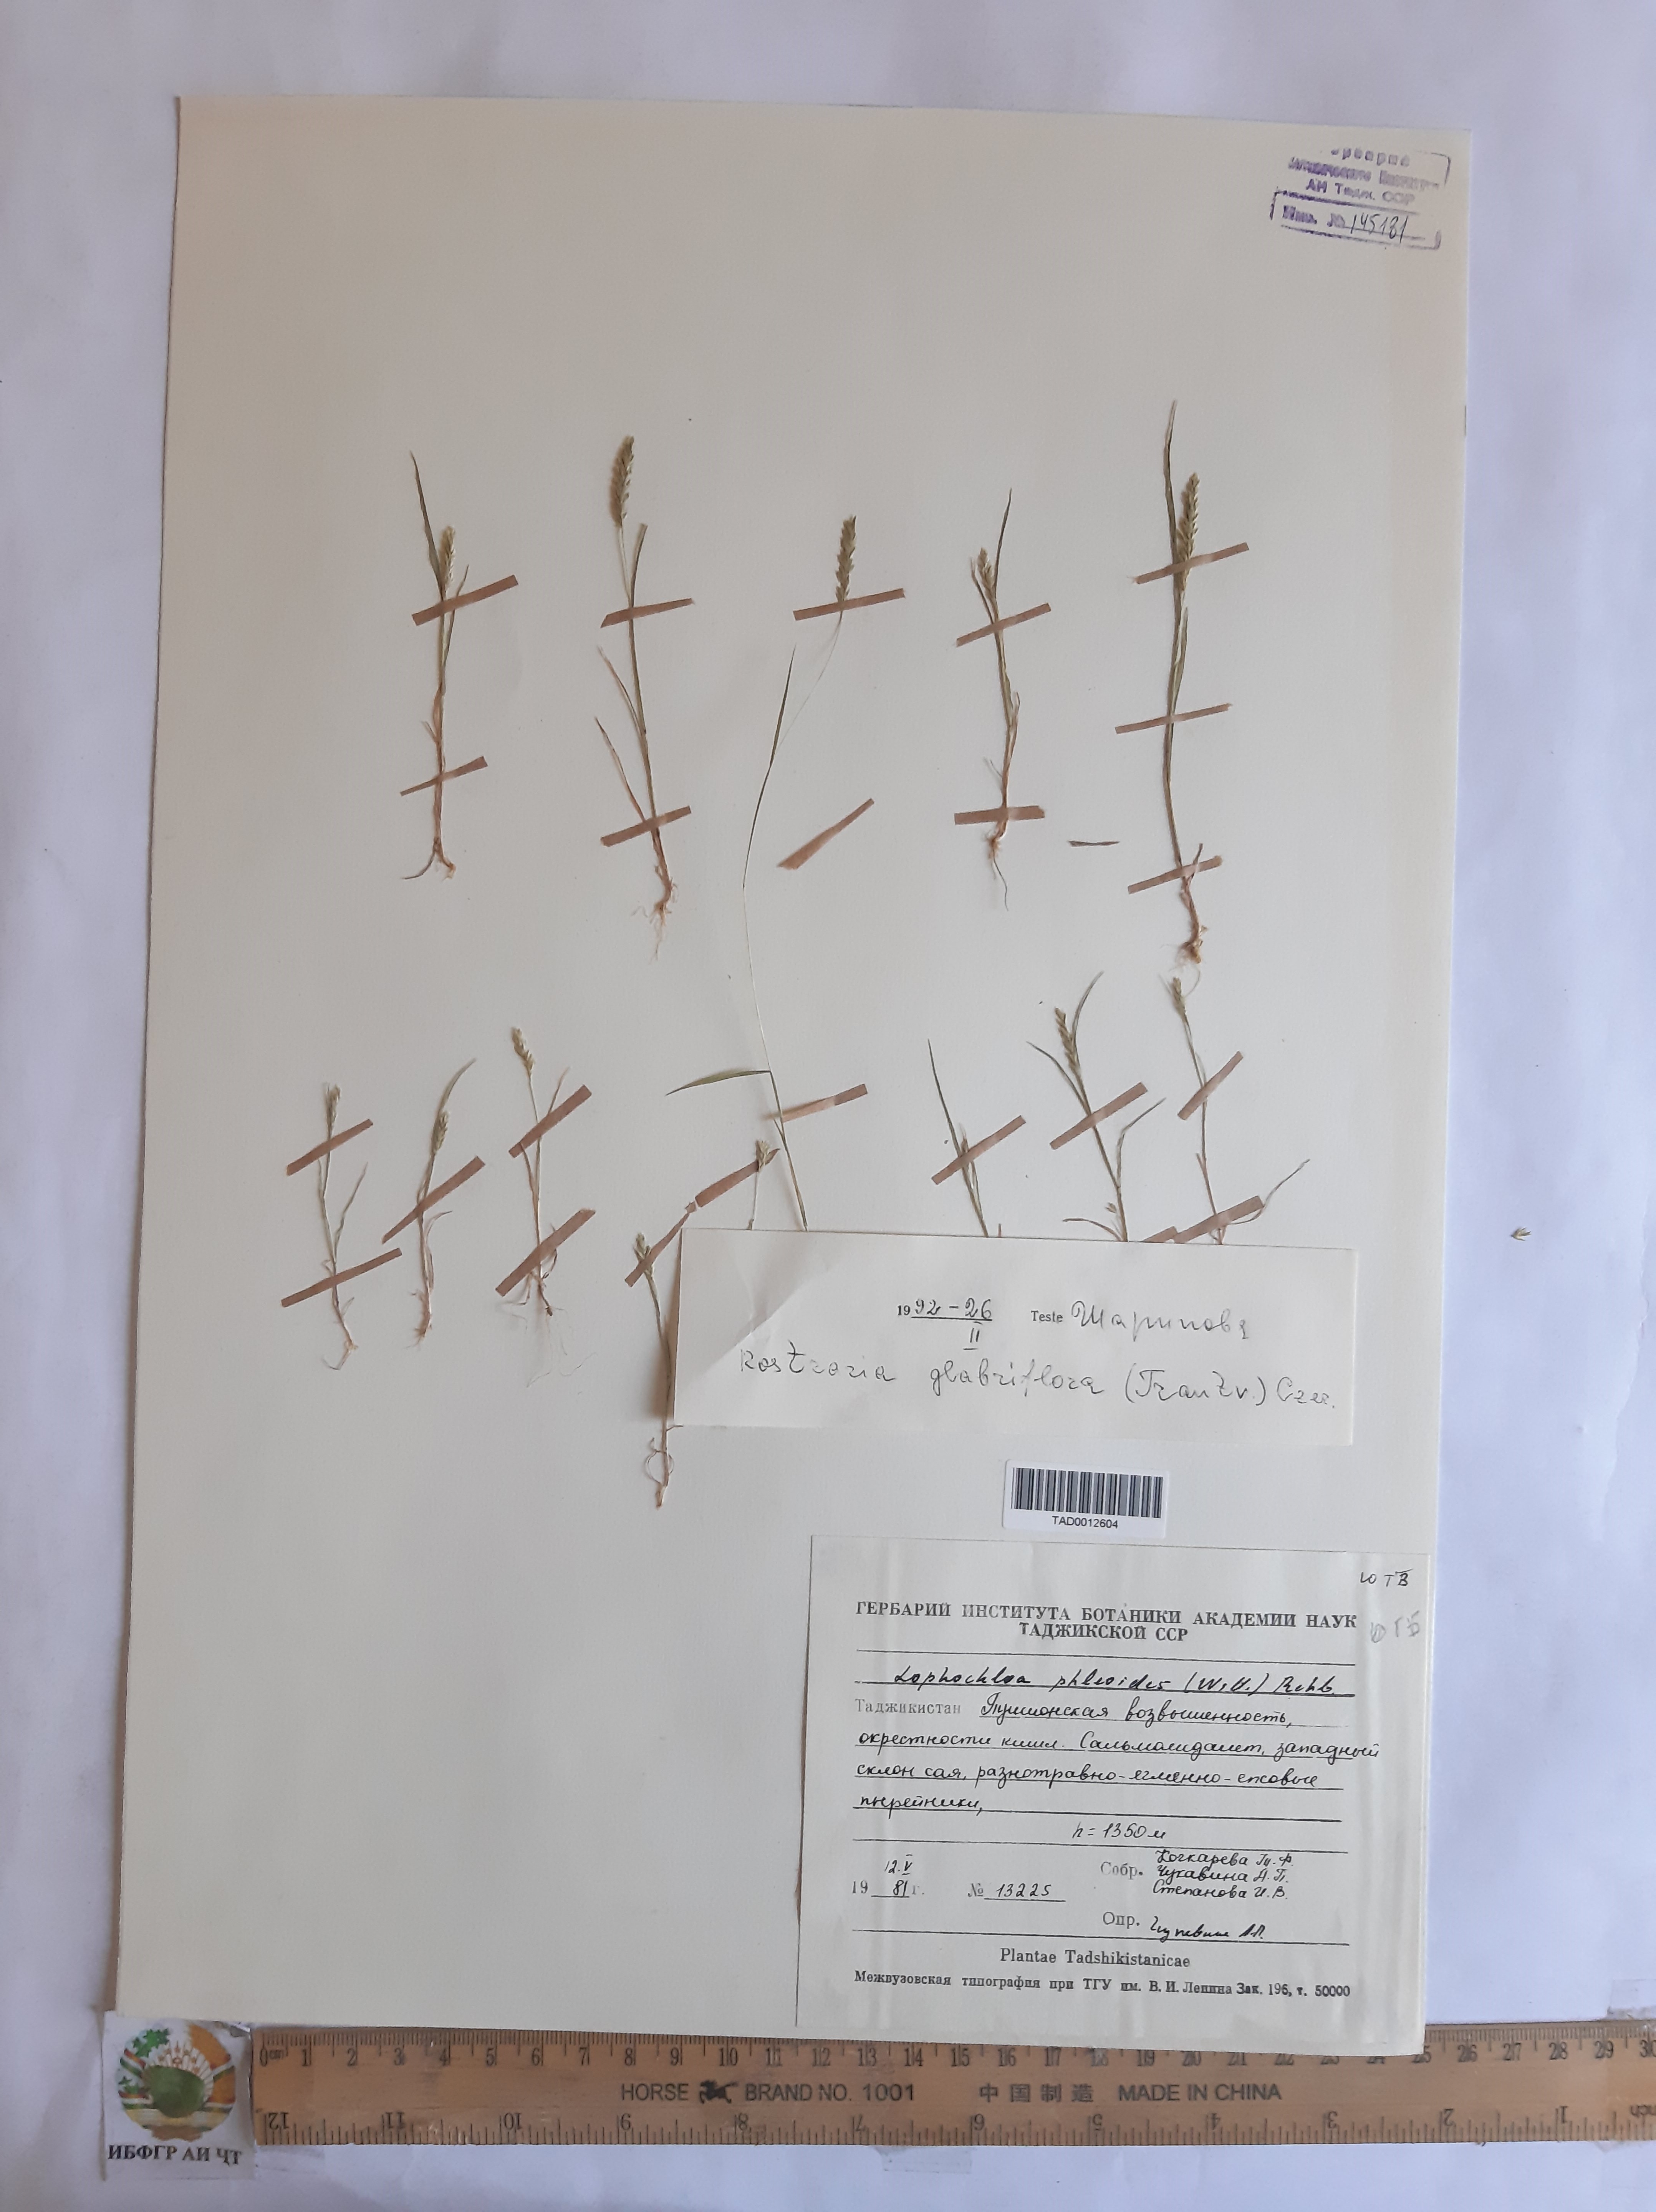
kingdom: Plantae
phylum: Tracheophyta
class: Liliopsida
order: Poales
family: Poaceae
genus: Rostraria
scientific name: Rostraria cristata
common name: Mediterranean hair-grass
